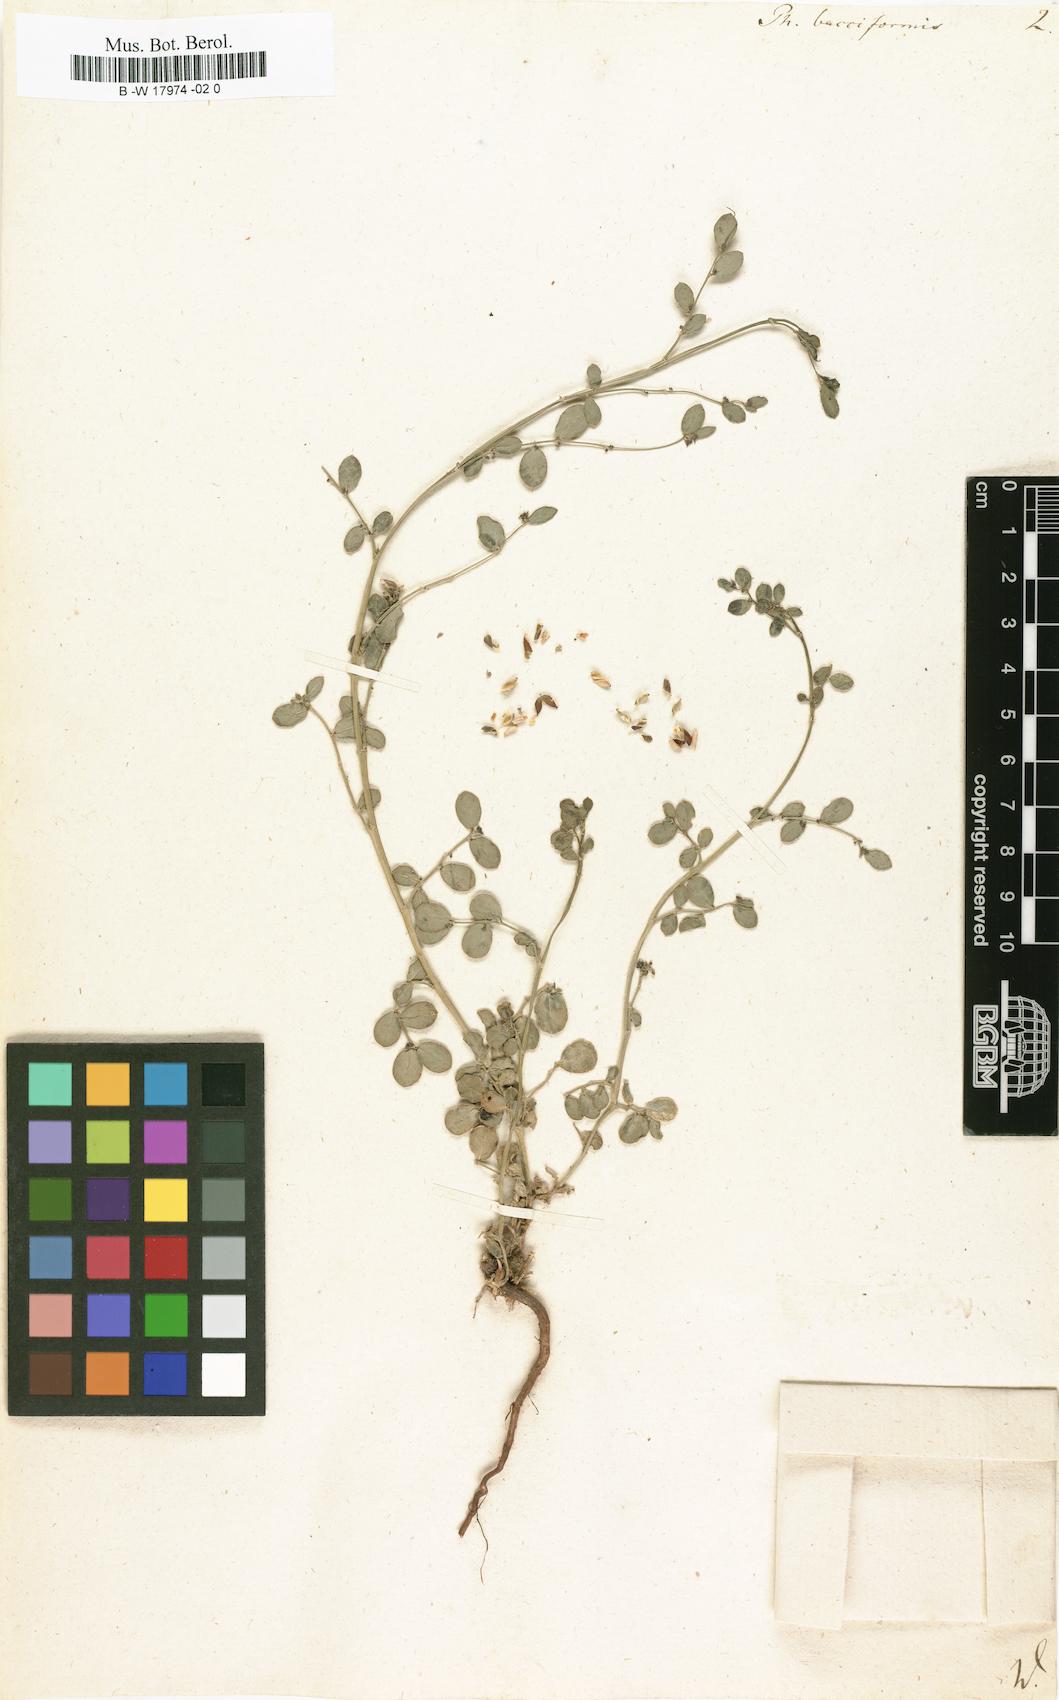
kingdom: Plantae
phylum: Tracheophyta
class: Magnoliopsida
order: Malpighiales
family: Phyllanthaceae
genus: Synostemon
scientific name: Synostemon bacciformis
